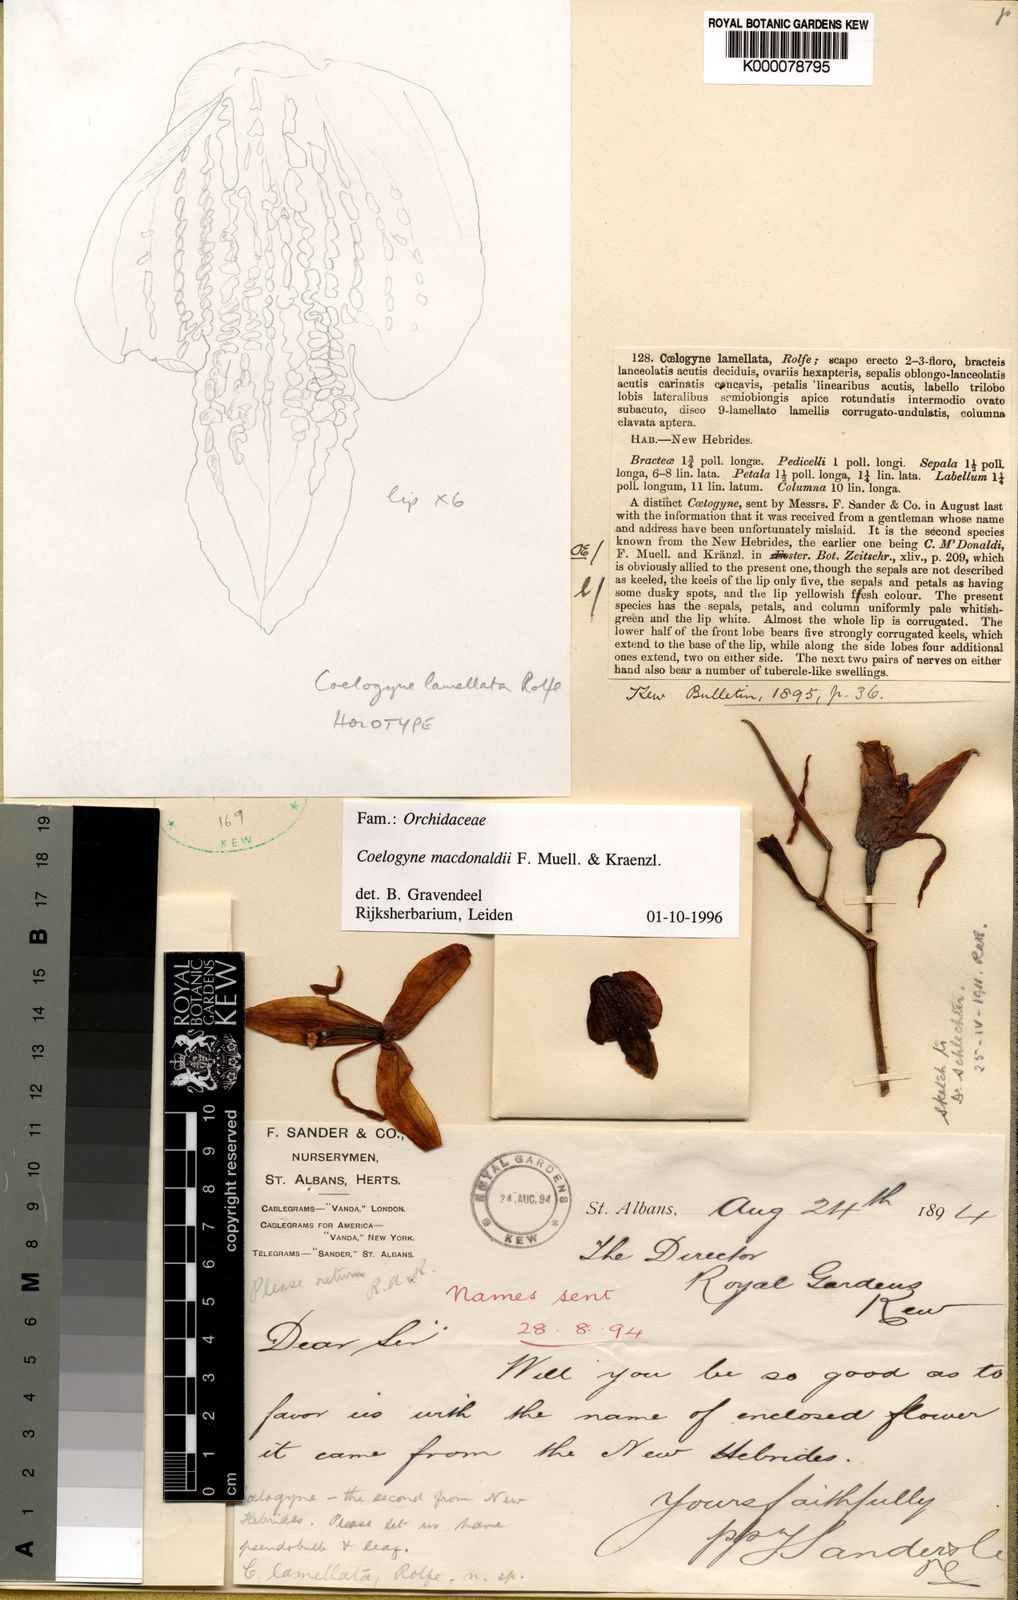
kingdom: Plantae
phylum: Tracheophyta
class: Liliopsida
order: Asparagales
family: Orchidaceae
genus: Coelogyne
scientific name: Coelogyne macdonaldii
